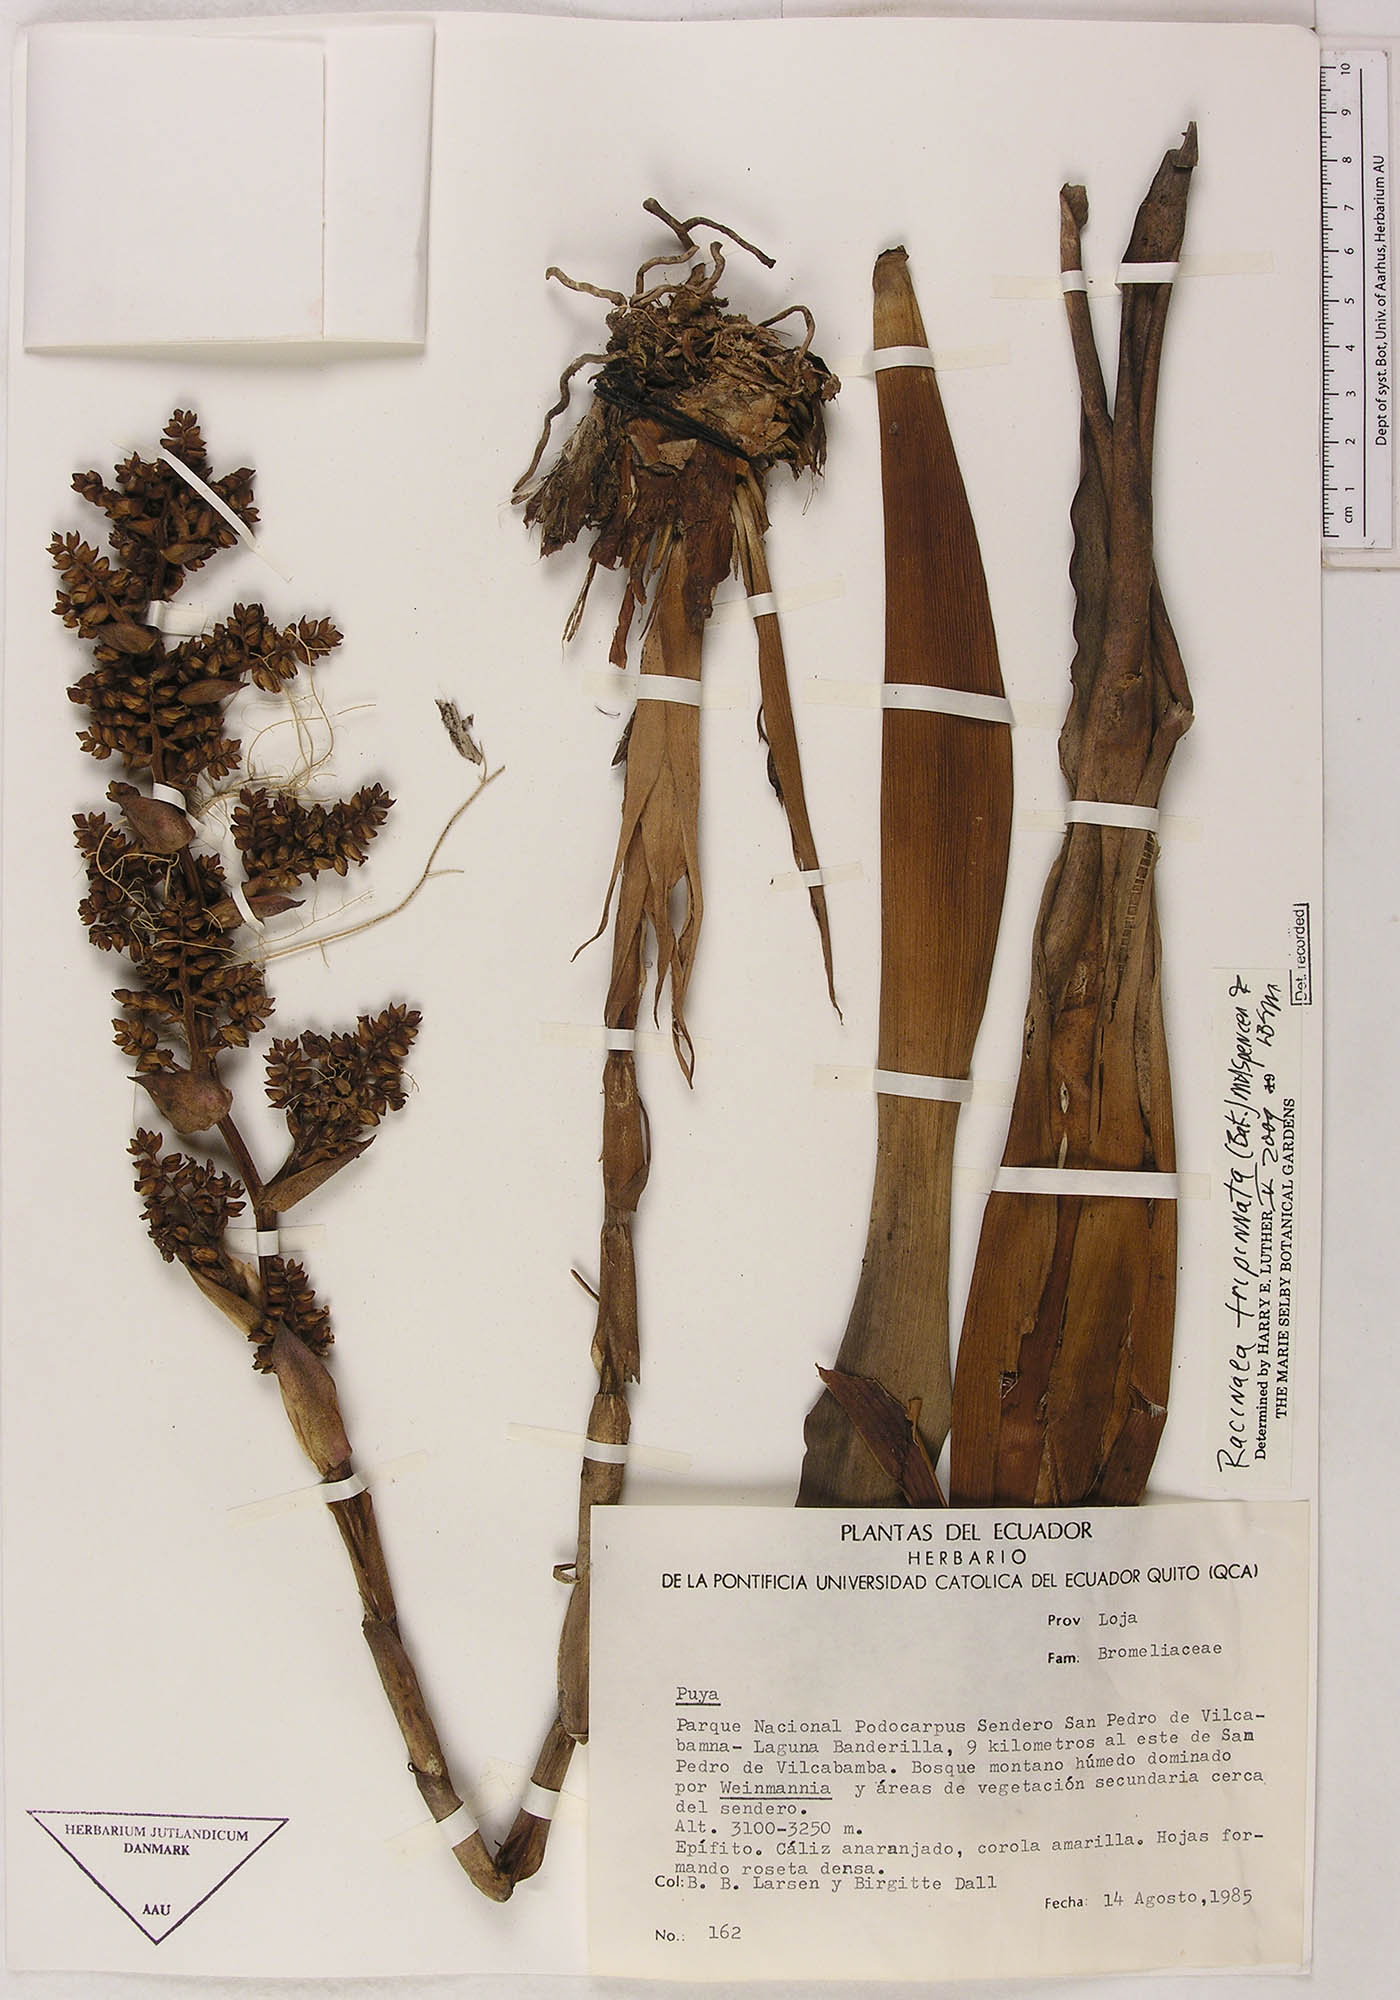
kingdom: Plantae
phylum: Tracheophyta
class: Liliopsida
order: Poales
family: Bromeliaceae
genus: Racinaea
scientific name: Racinaea tripinnata
